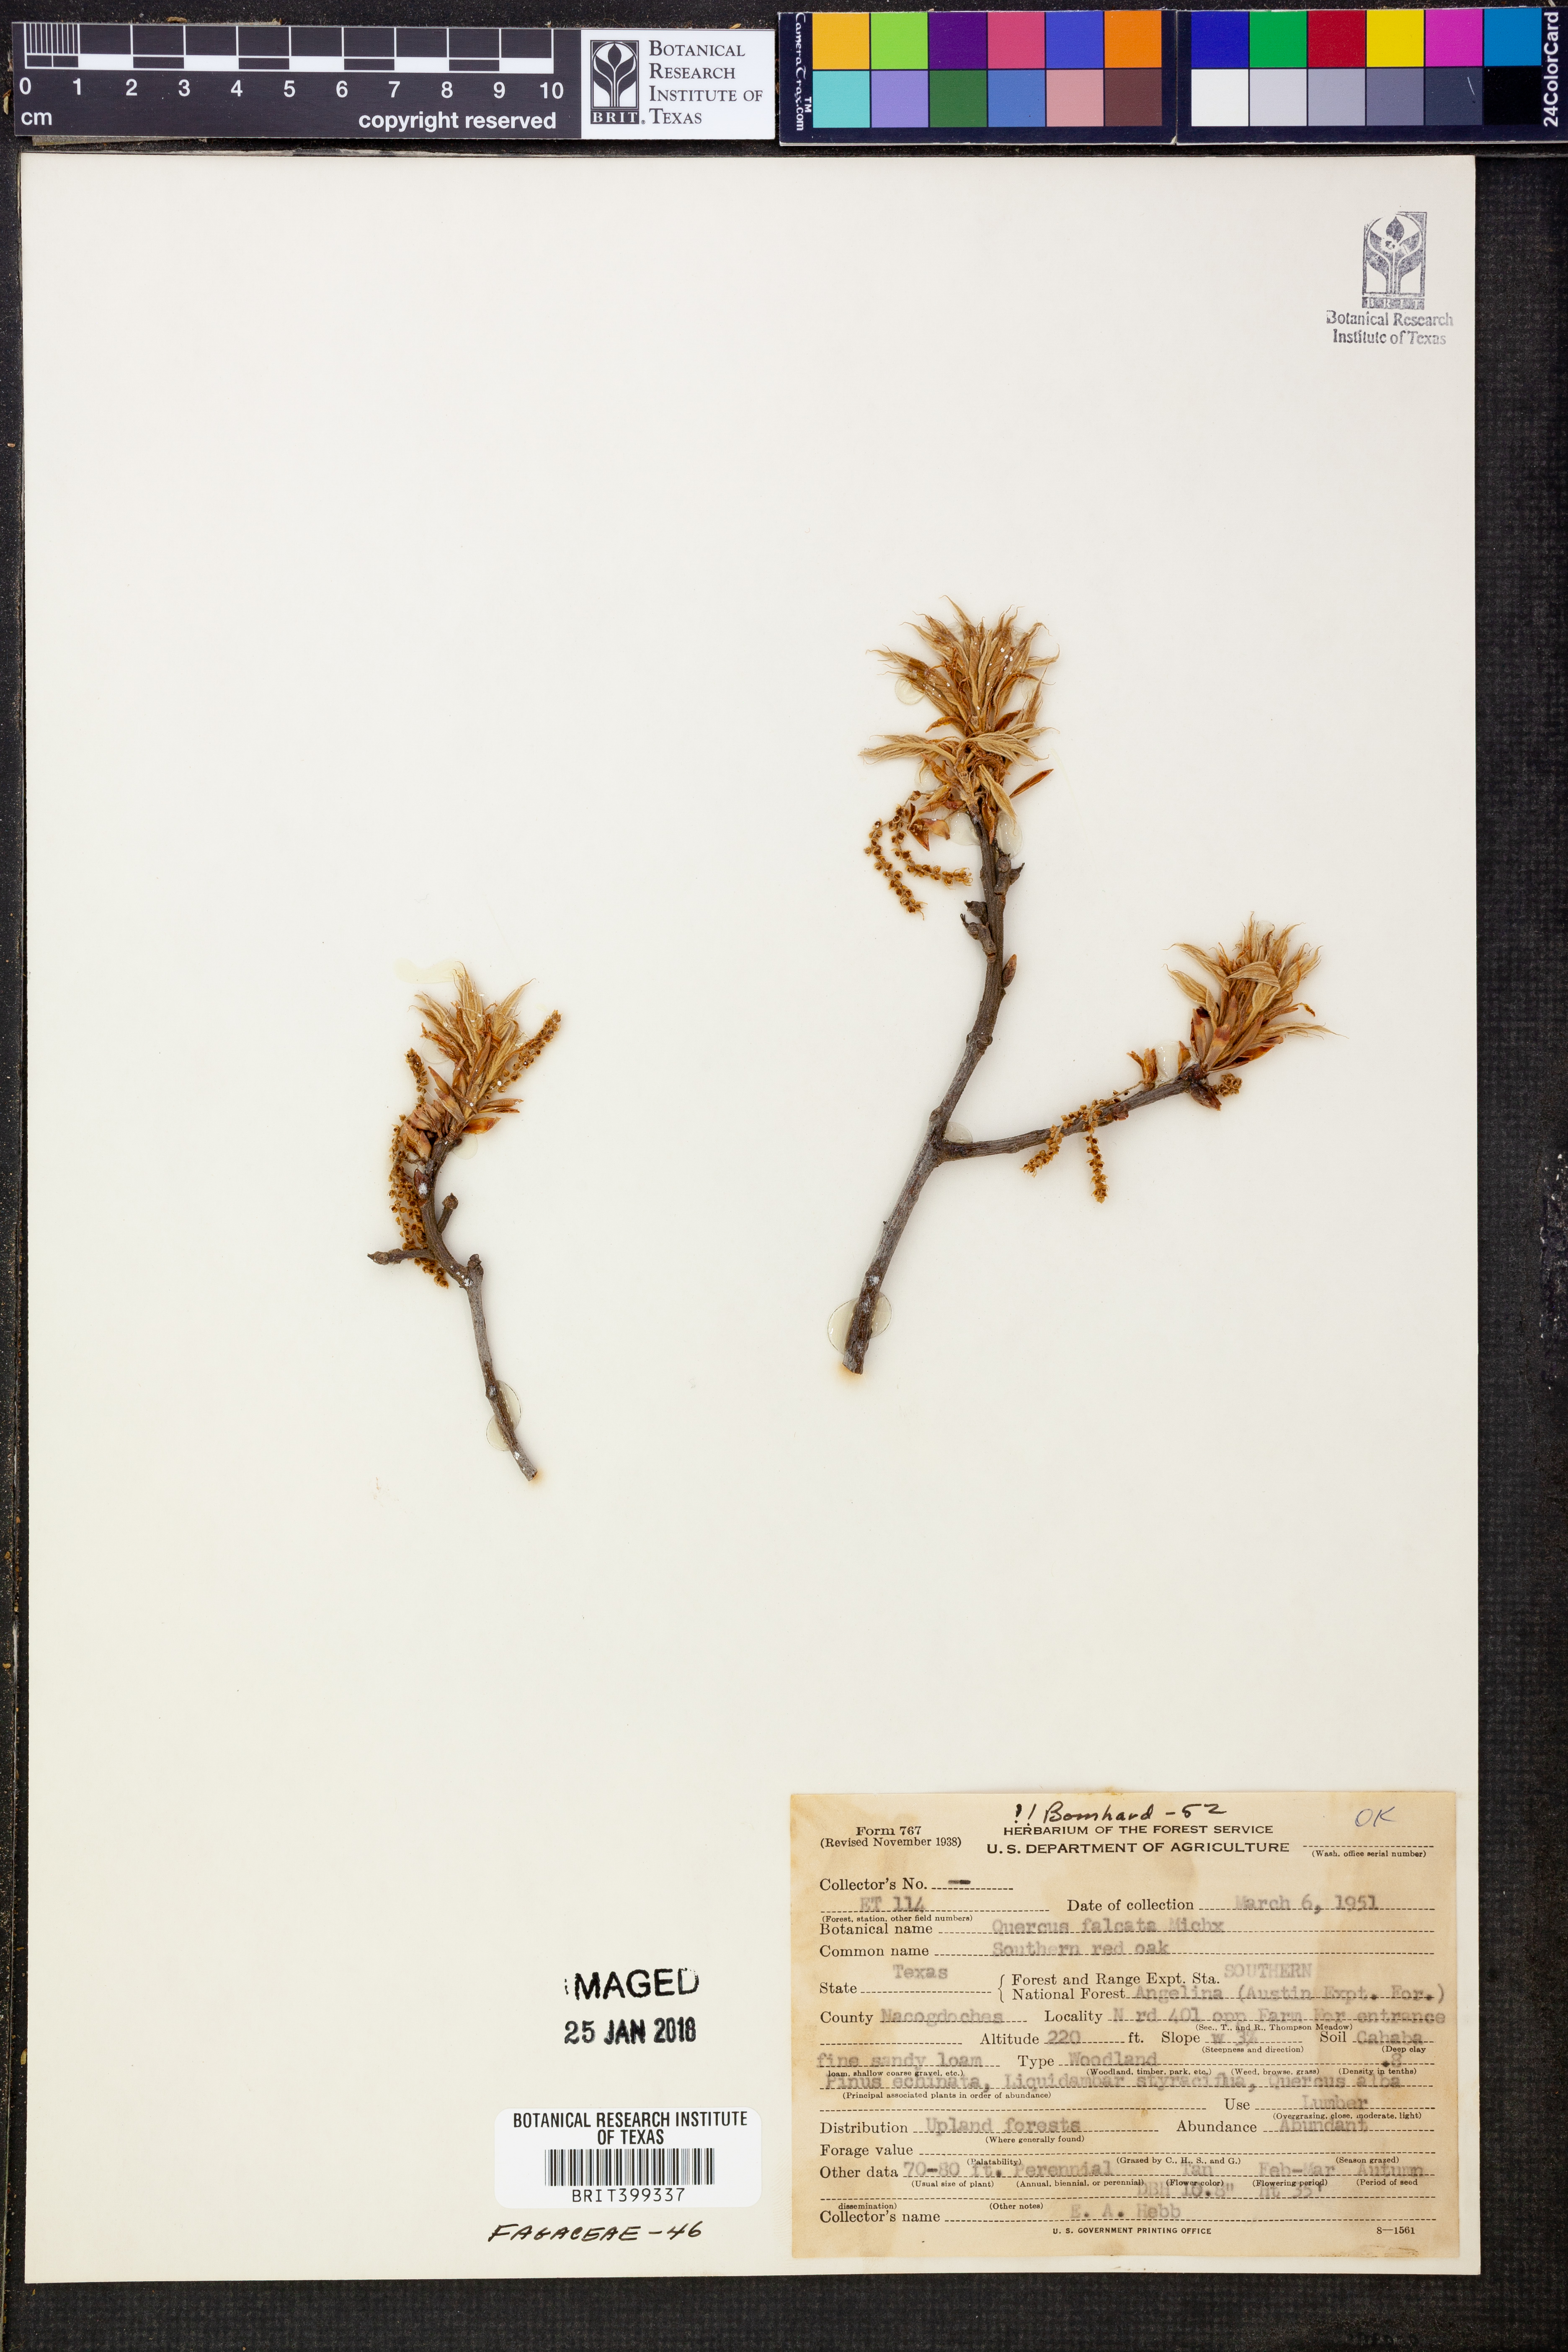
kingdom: Plantae
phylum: Tracheophyta
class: Magnoliopsida
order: Fagales
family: Fagaceae
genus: Quercus
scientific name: Quercus falcata
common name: Southern red oak
